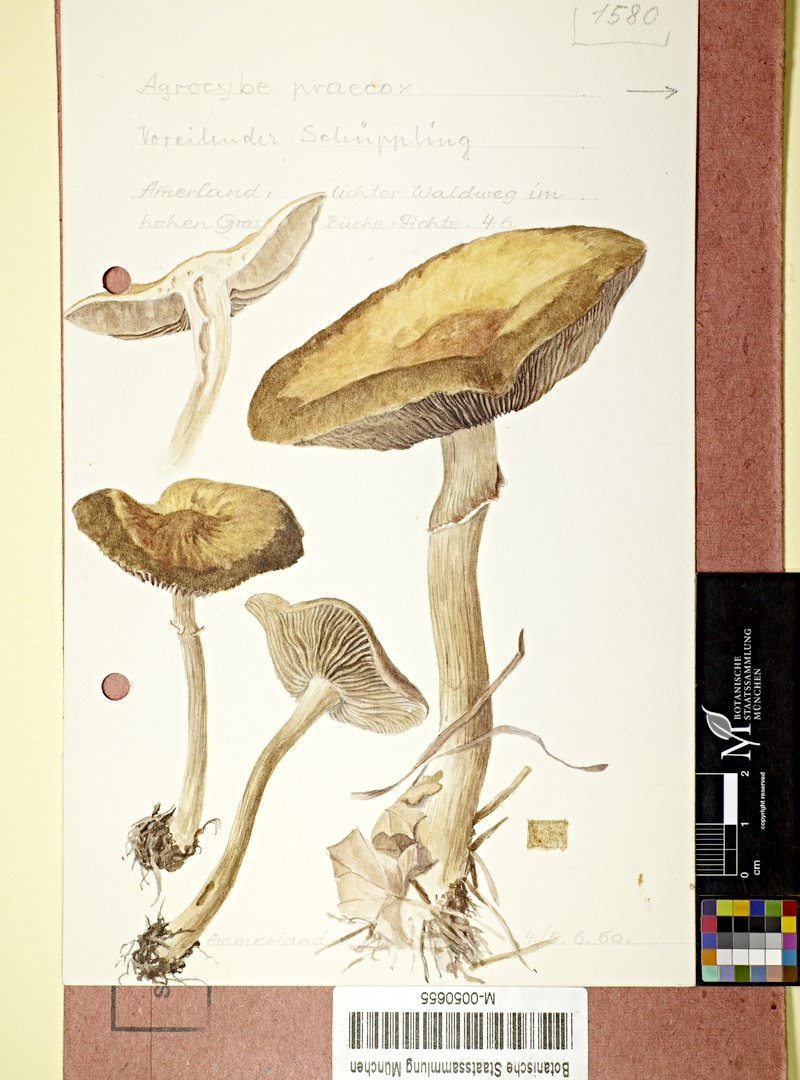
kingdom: Fungi
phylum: Basidiomycota
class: Agaricomycetes
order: Agaricales
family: Strophariaceae
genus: Agrocybe
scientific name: Agrocybe praecox
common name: Spring fieldcap
